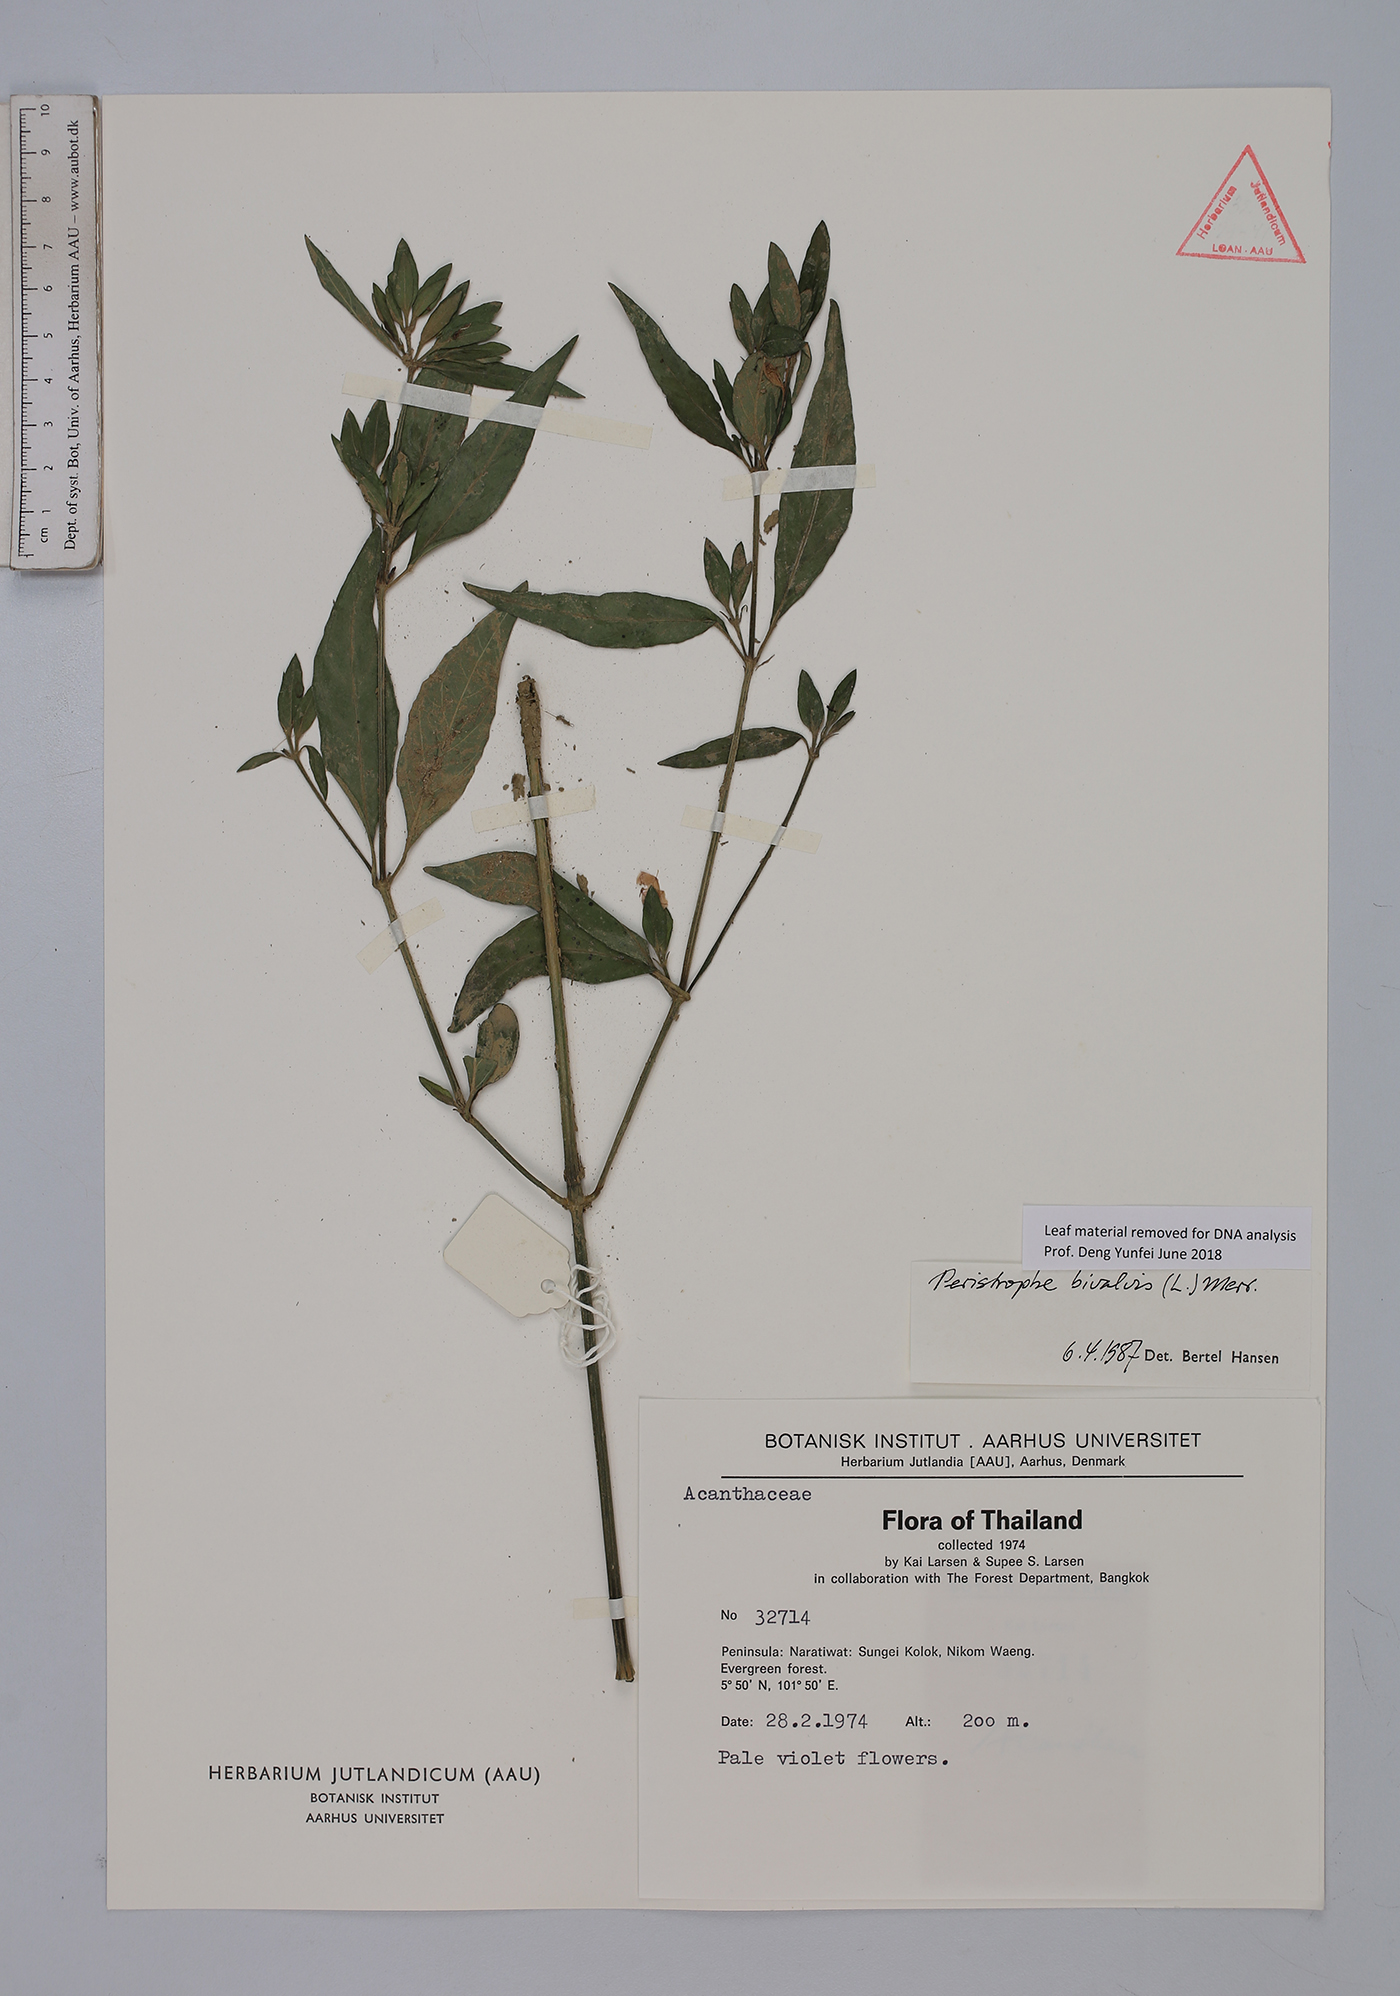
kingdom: Plantae
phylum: Tracheophyta
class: Magnoliopsida
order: Lamiales
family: Acanthaceae
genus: Dicliptera
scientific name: Dicliptera tinctoria
